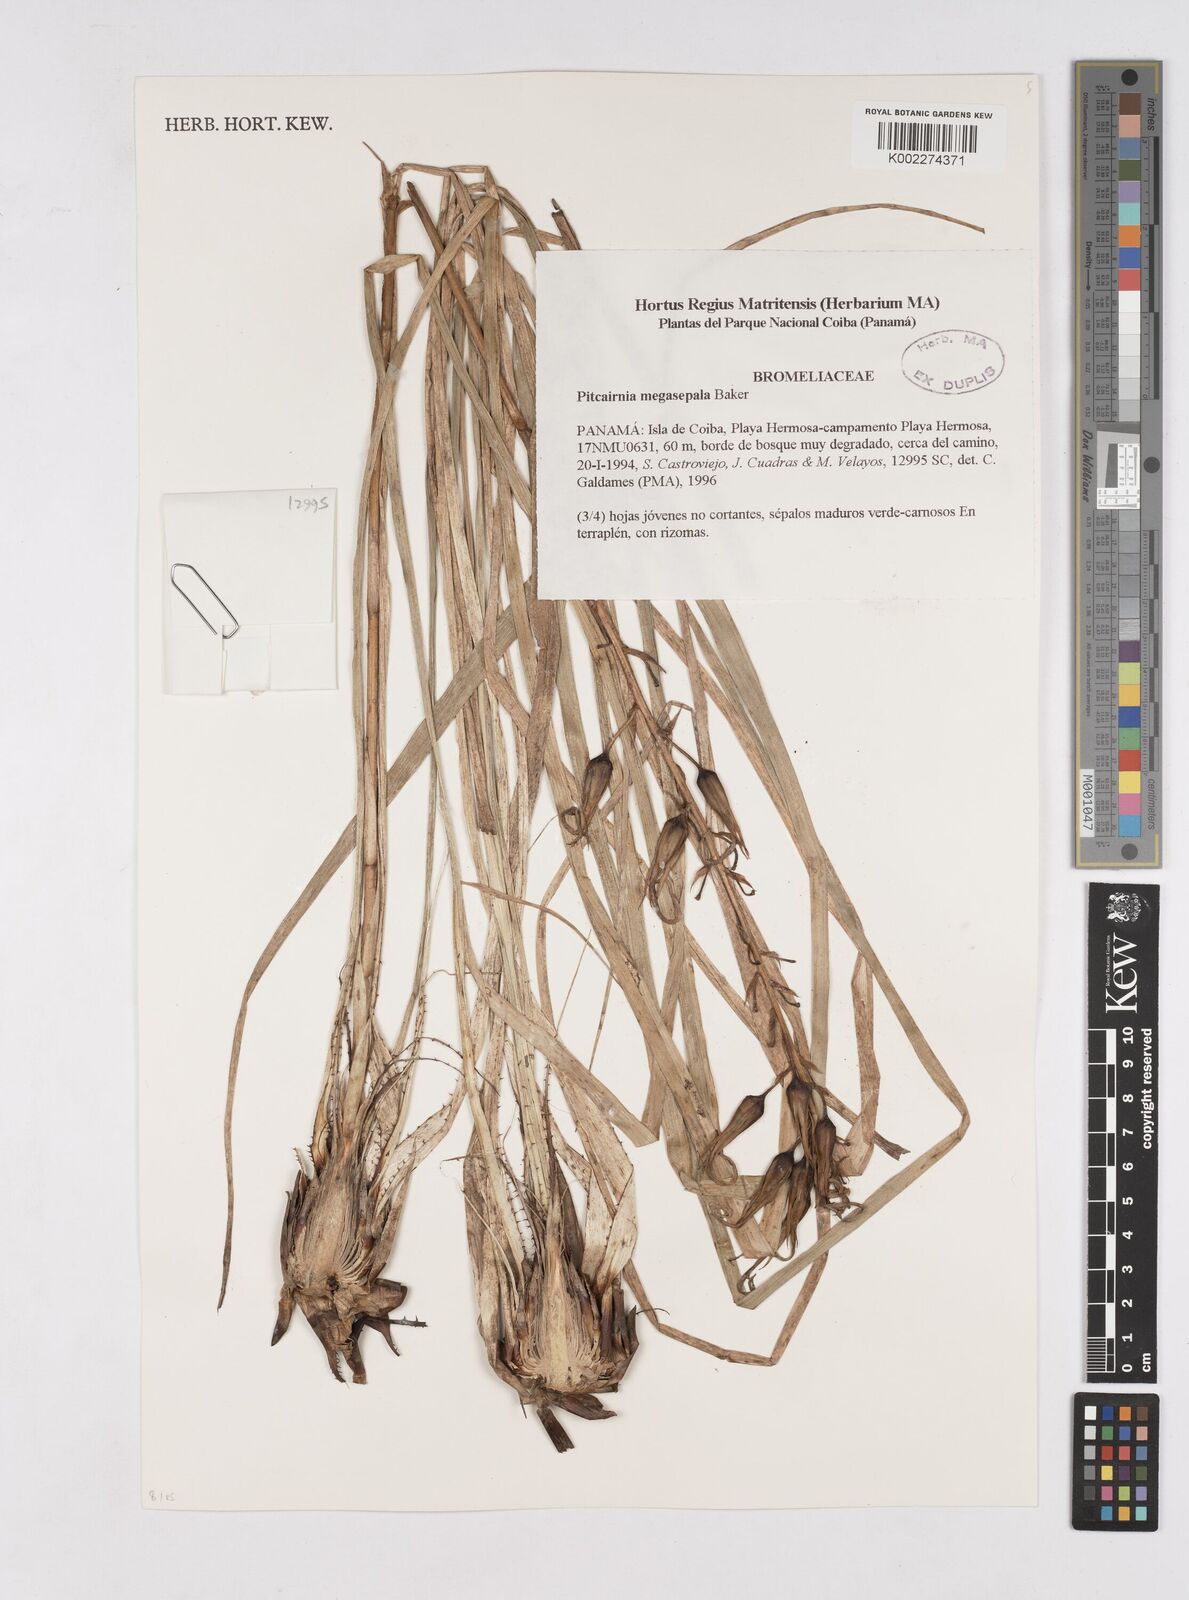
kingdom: Plantae
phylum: Tracheophyta
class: Liliopsida
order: Poales
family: Bromeliaceae
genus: Pitcairnia
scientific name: Pitcairnia megasepala
